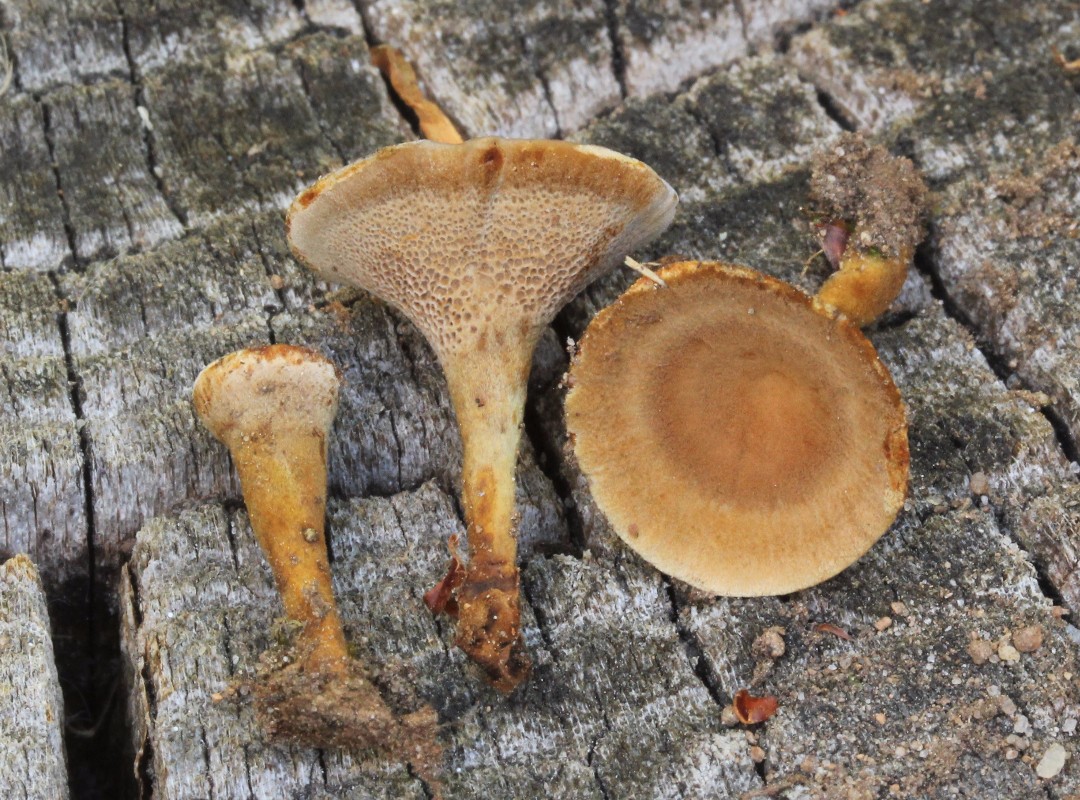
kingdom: Fungi
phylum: Basidiomycota
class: Agaricomycetes
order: Hymenochaetales
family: Hymenochaetaceae
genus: Coltricia
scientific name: Coltricia perennis
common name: almindelig sandporesvamp
